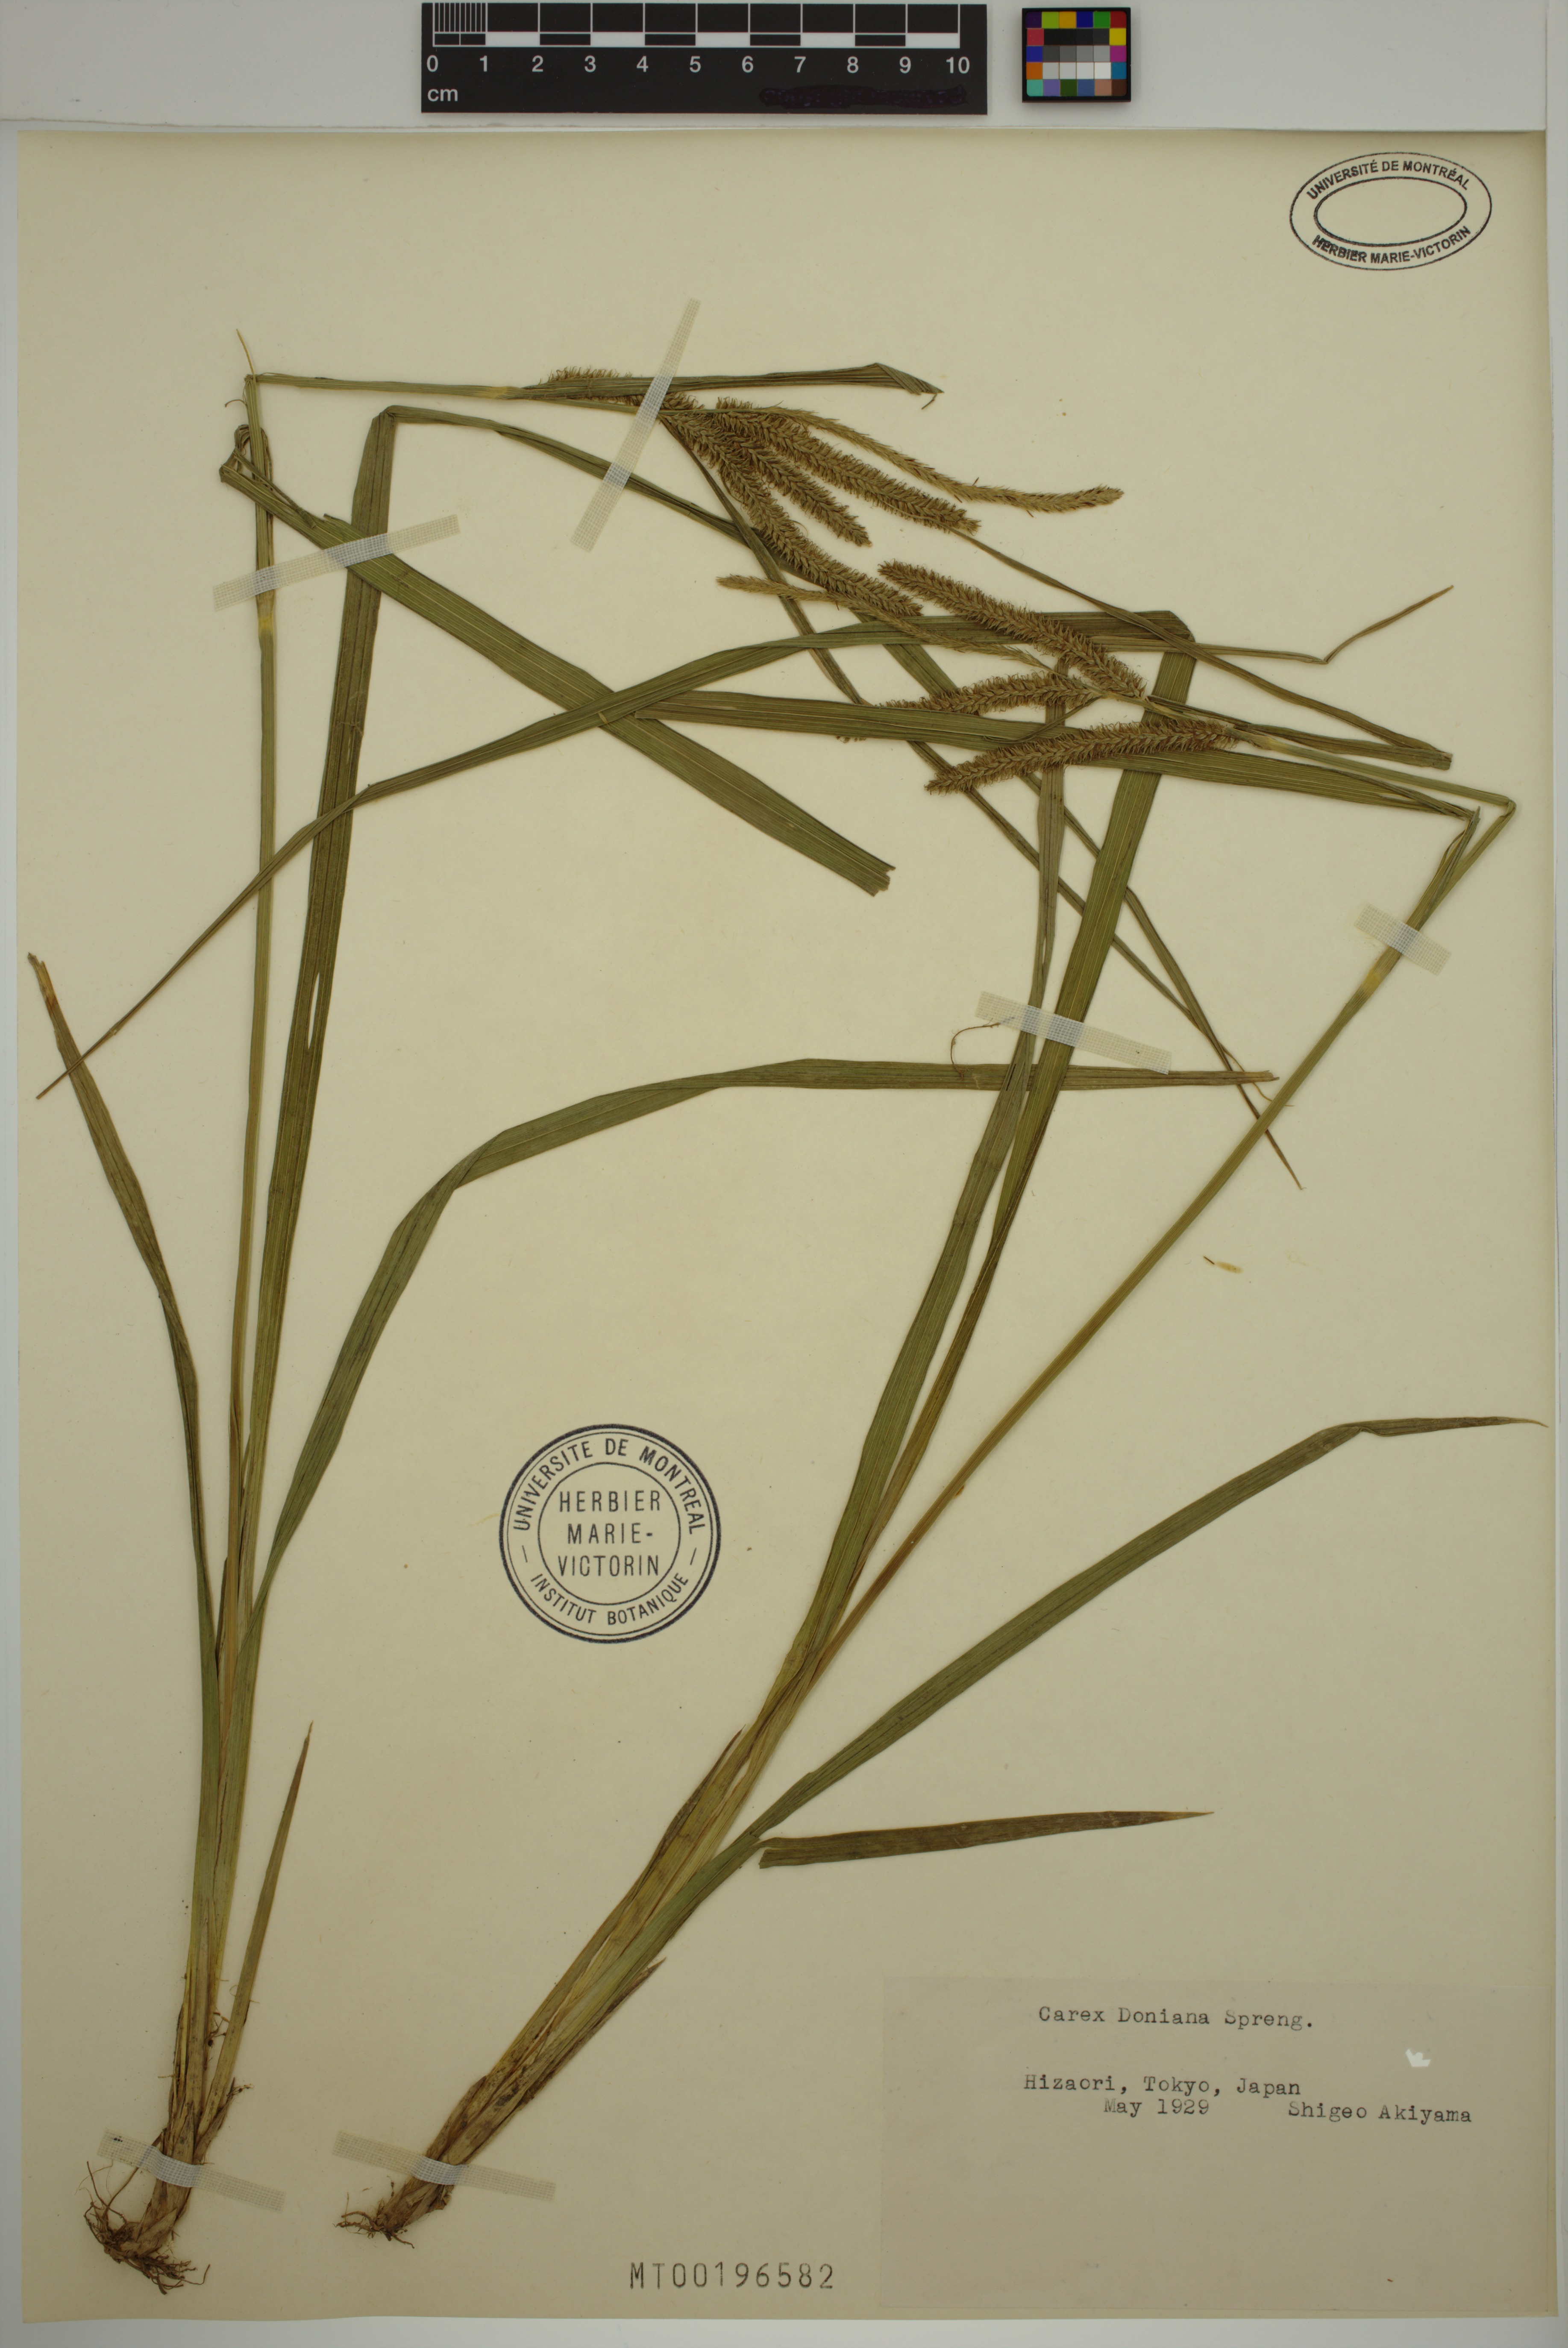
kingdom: Plantae
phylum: Tracheophyta
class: Liliopsida
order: Poales
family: Cyperaceae
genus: Carex
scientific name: Carex doniana
